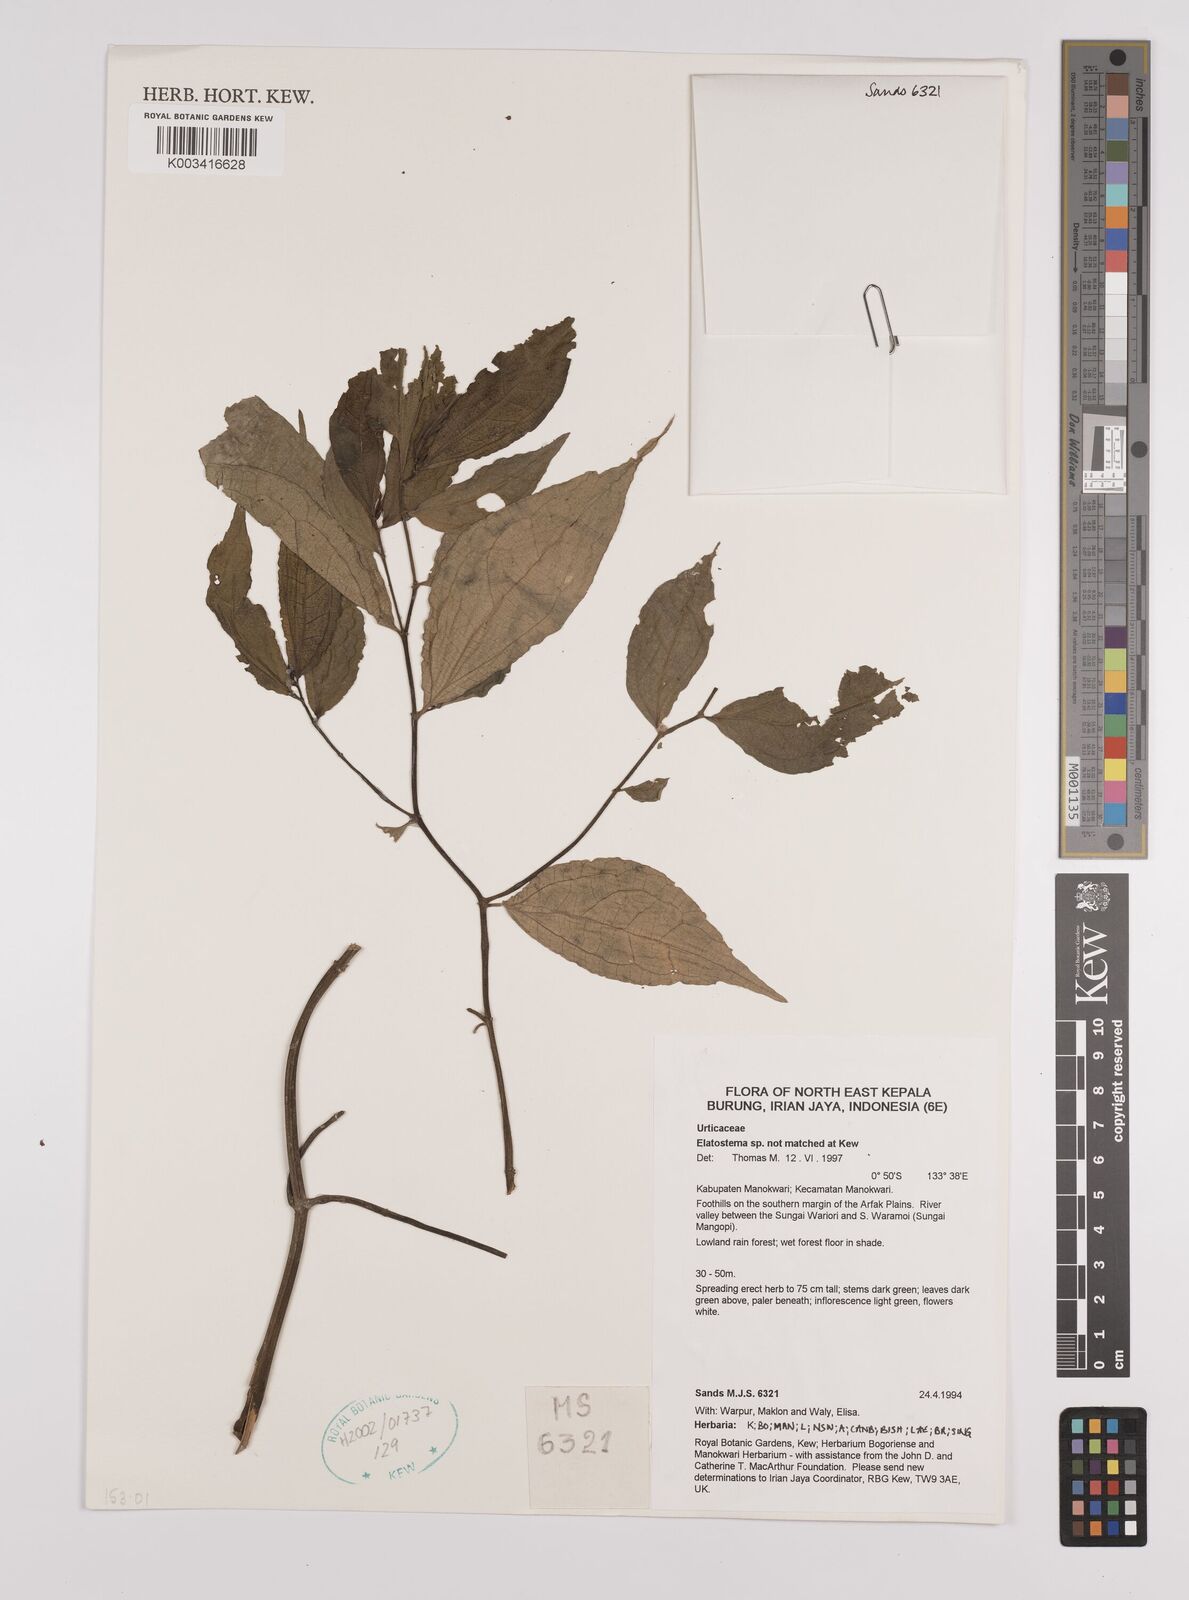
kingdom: Plantae
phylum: Tracheophyta
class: Magnoliopsida
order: Rosales
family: Urticaceae
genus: Elatostema
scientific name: Elatostema
